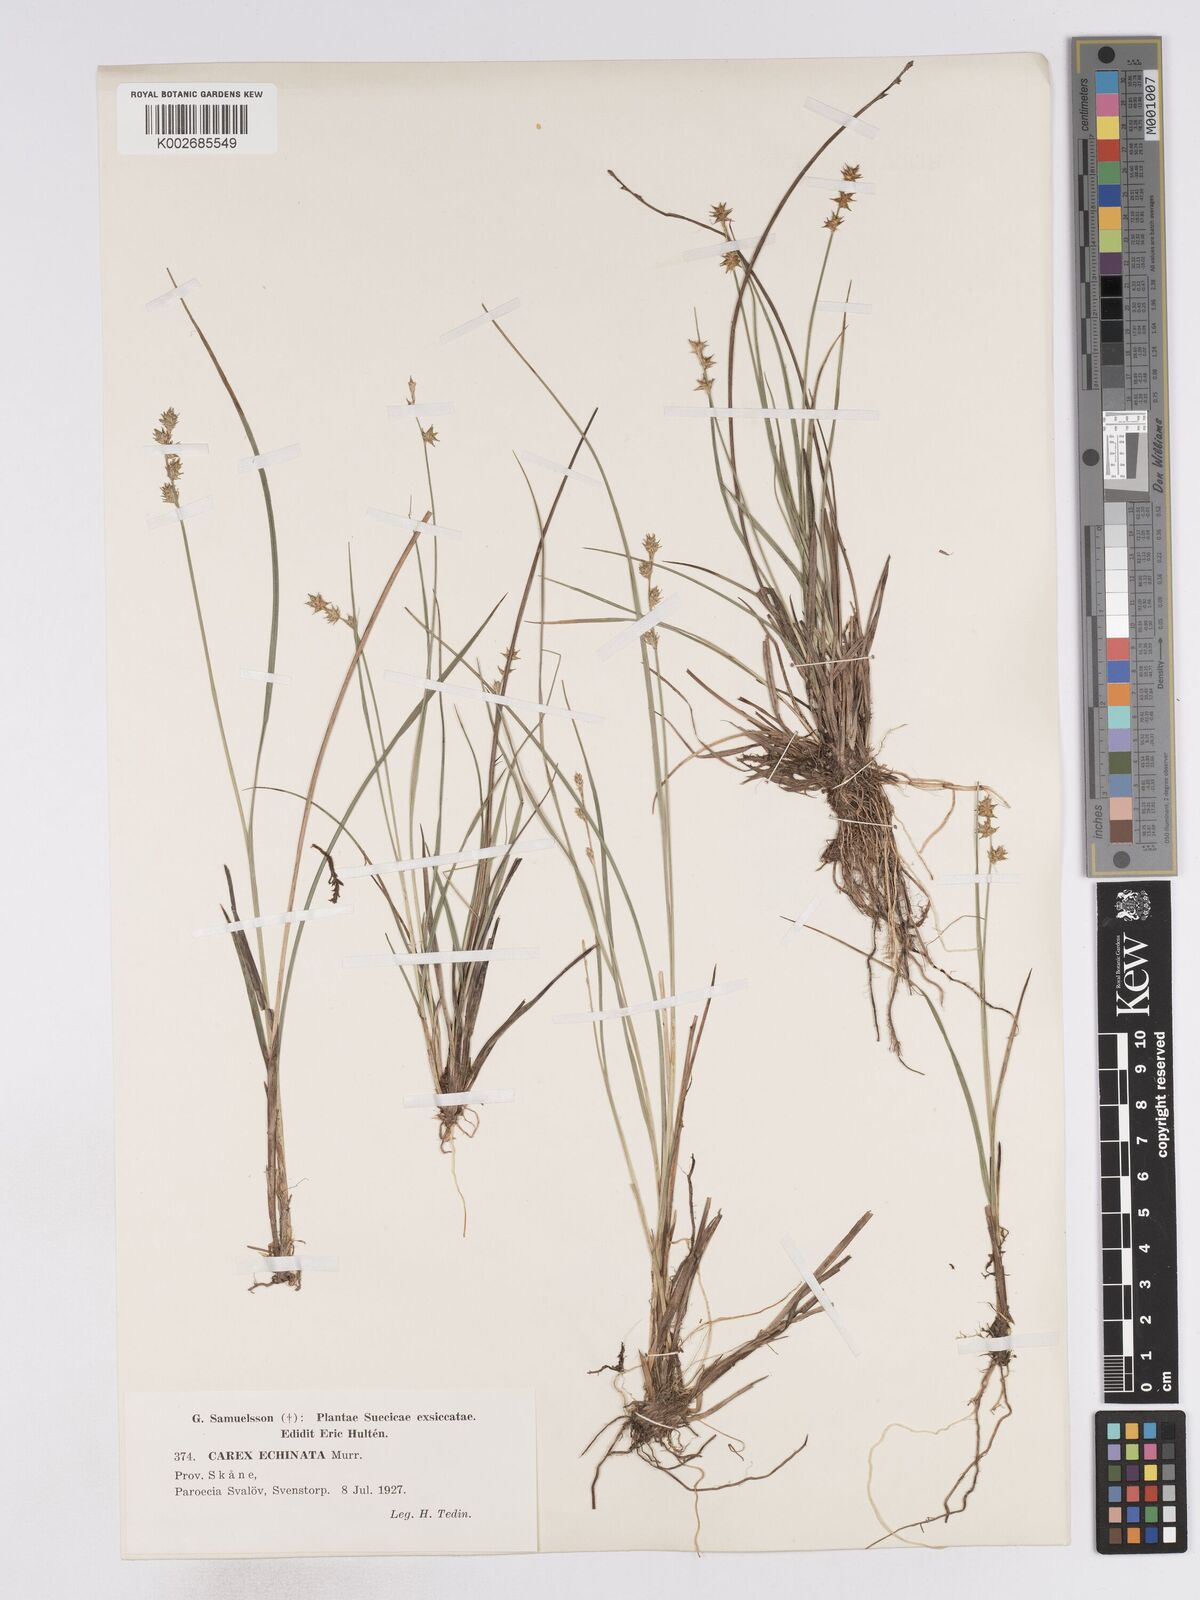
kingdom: Plantae
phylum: Tracheophyta
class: Liliopsida
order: Poales
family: Cyperaceae
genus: Carex
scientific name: Carex echinata
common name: Star sedge
